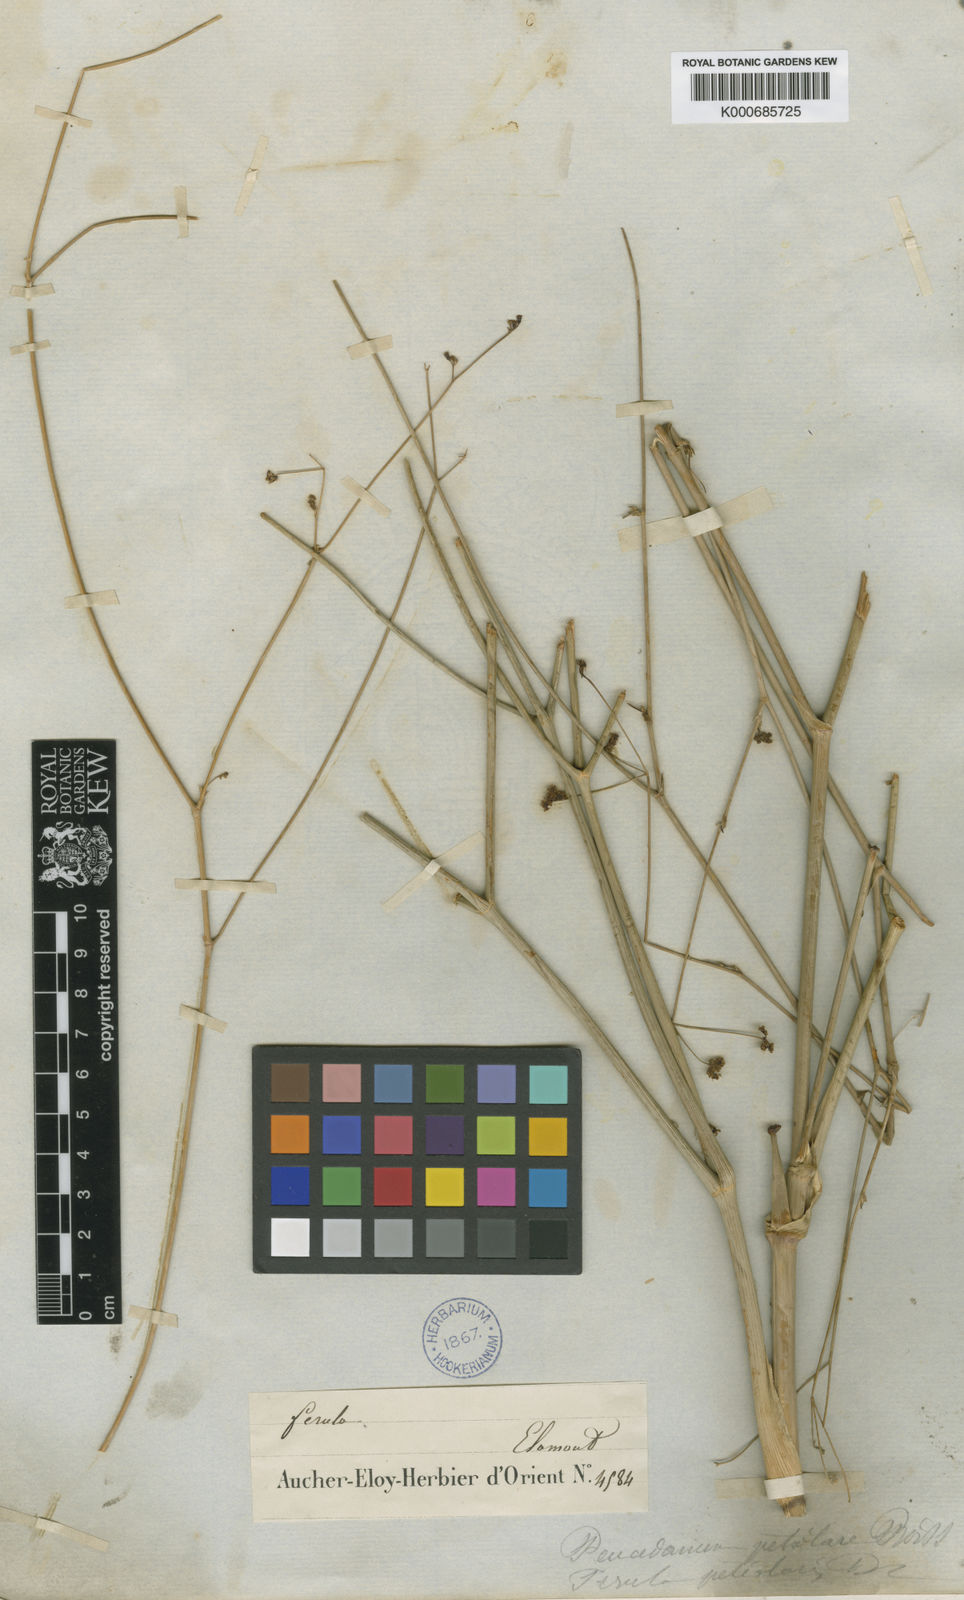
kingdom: Plantae
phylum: Tracheophyta
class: Magnoliopsida
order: Apiales
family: Apiaceae
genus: Peucedanum
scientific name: Peucedanum
